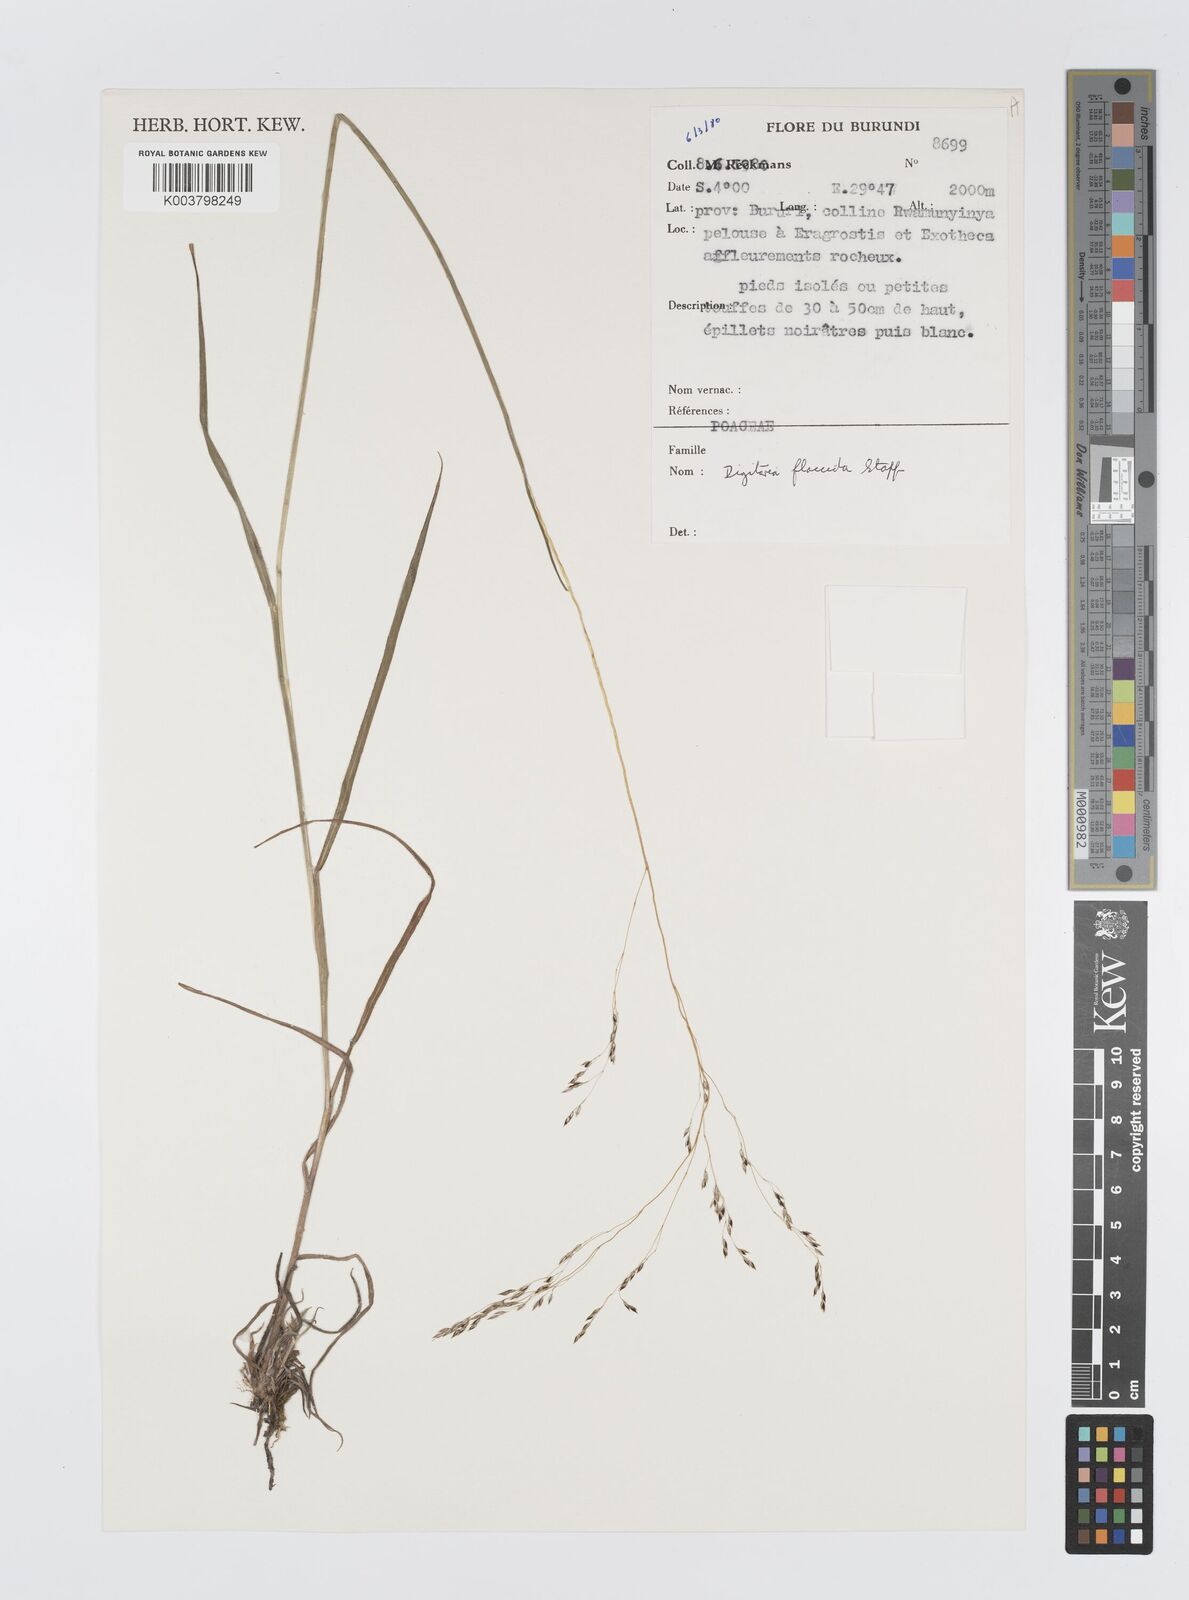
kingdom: Plantae
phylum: Tracheophyta
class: Liliopsida
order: Poales
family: Poaceae
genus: Digitaria
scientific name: Digitaria flaccida
